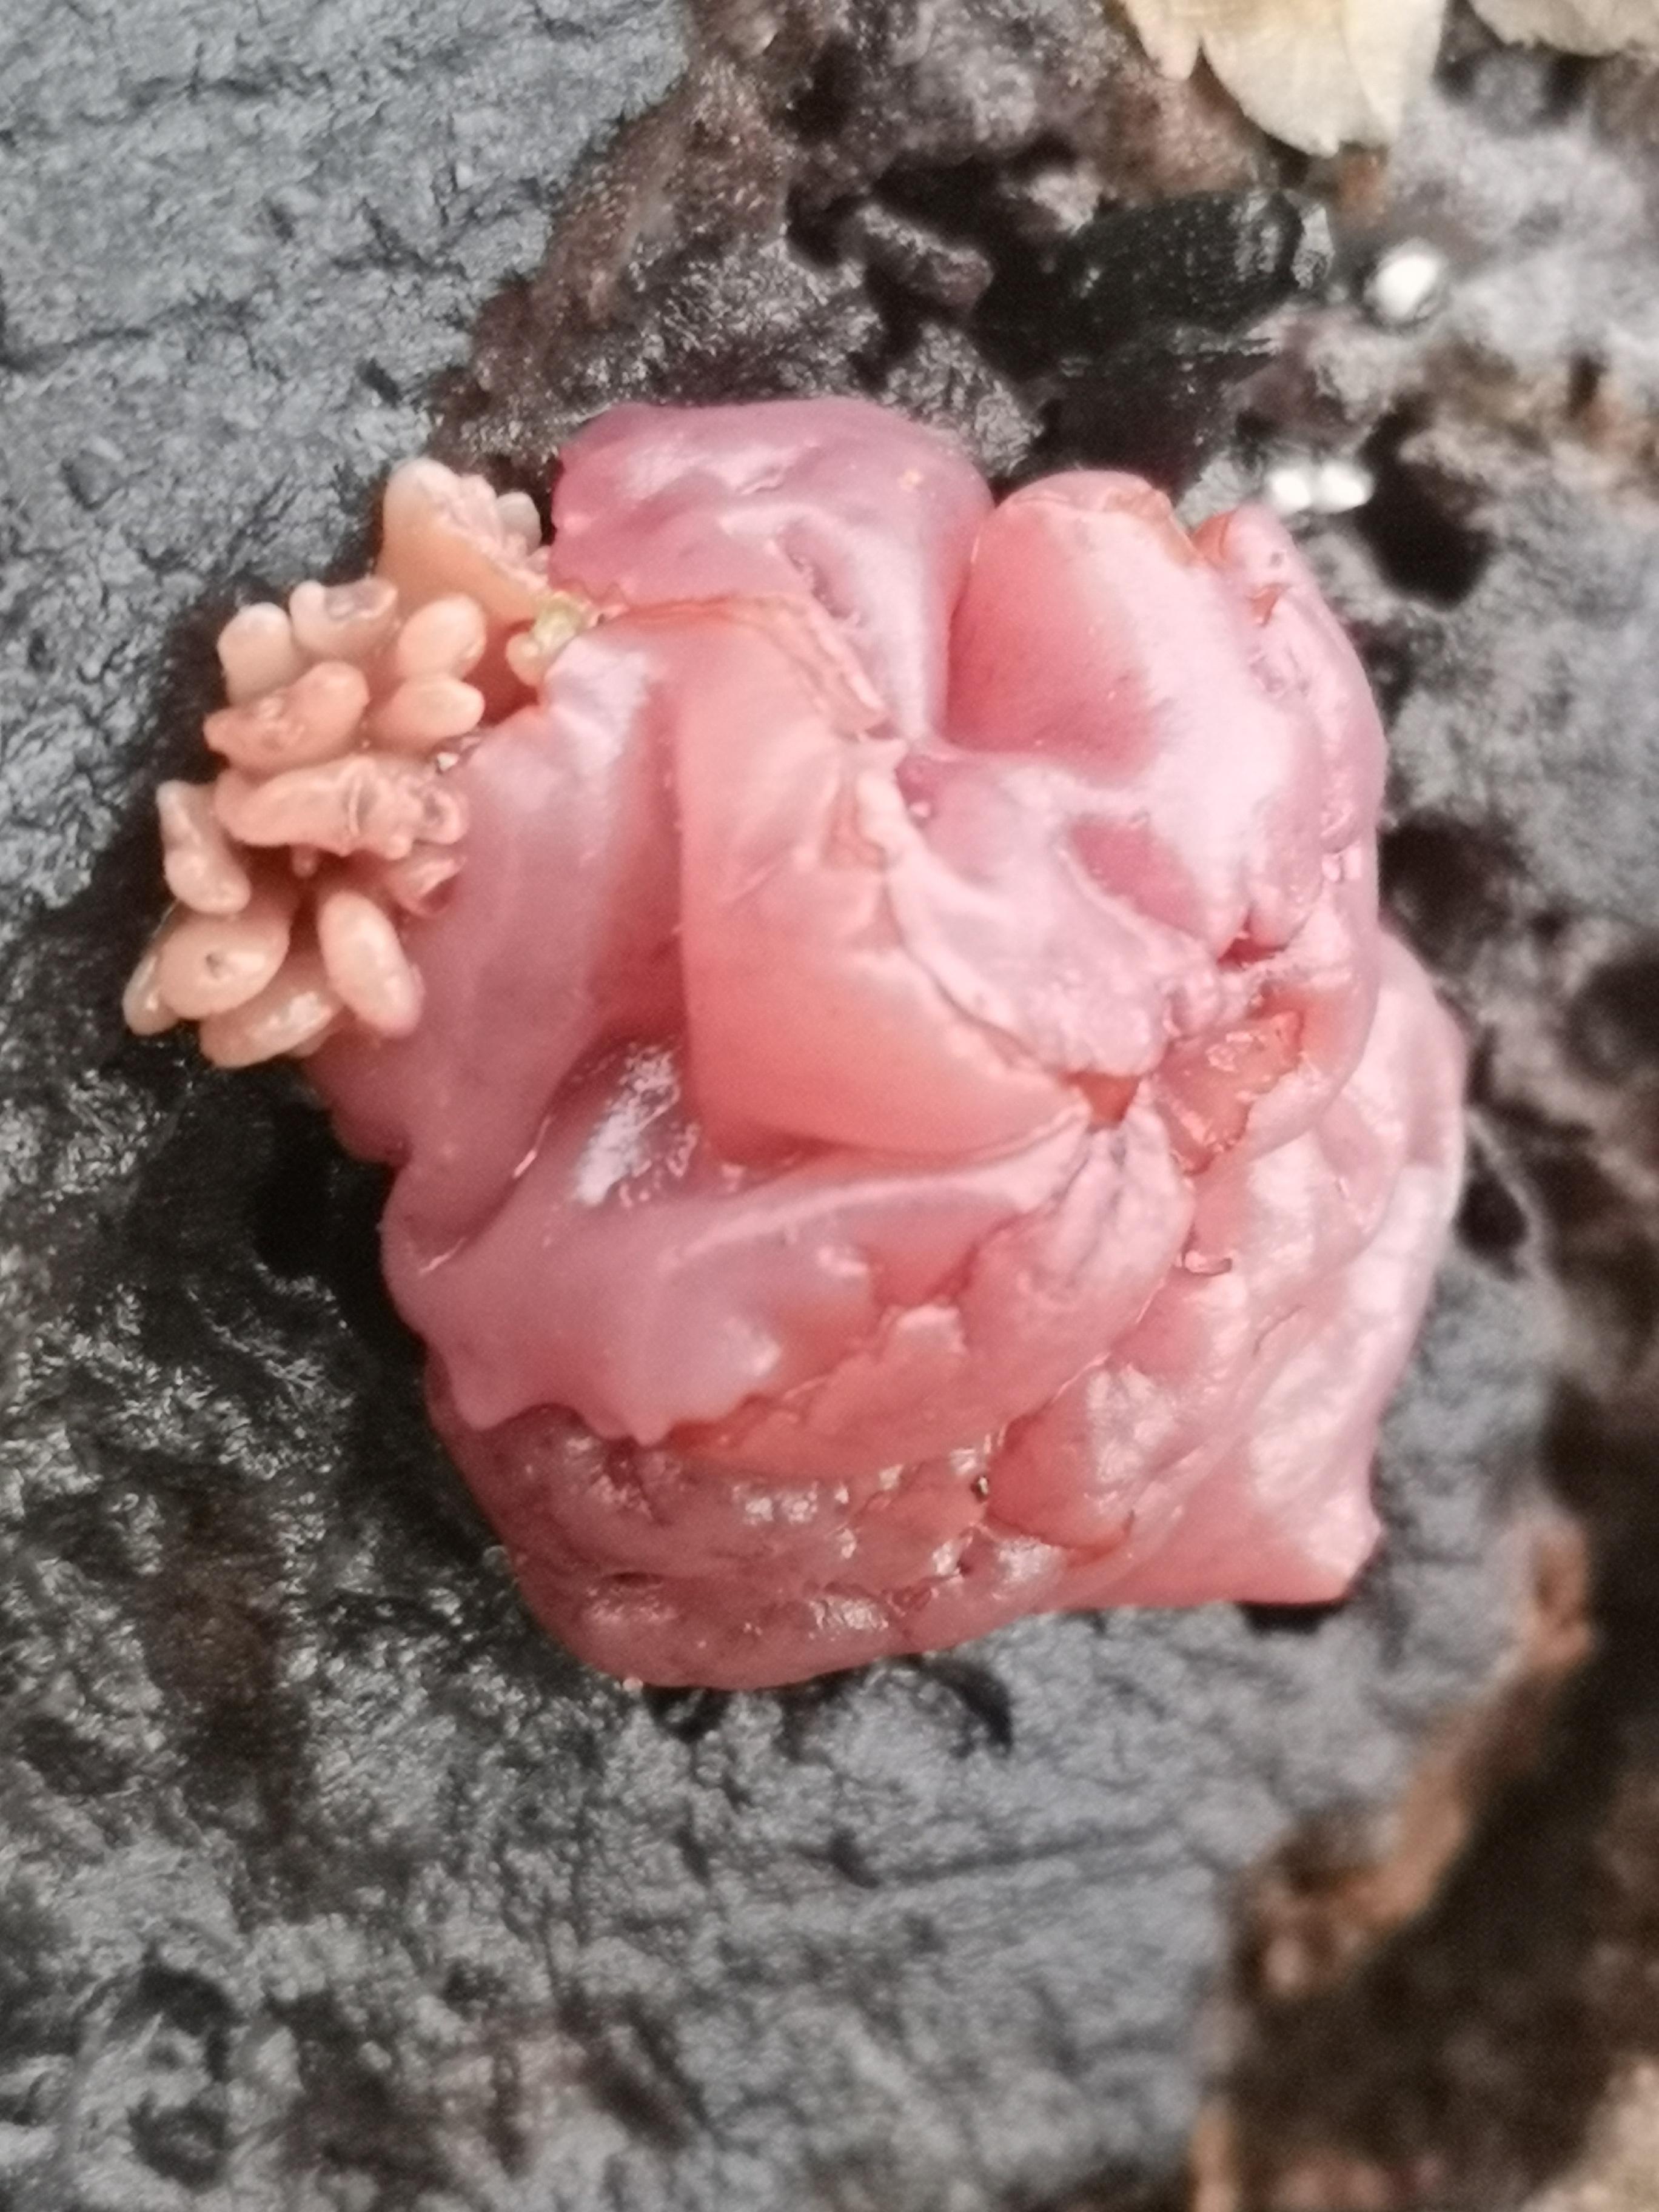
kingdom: Fungi
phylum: Ascomycota
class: Leotiomycetes
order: Helotiales
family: Gelatinodiscaceae
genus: Ascocoryne
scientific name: Ascocoryne sarcoides
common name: rødlilla sejskive
